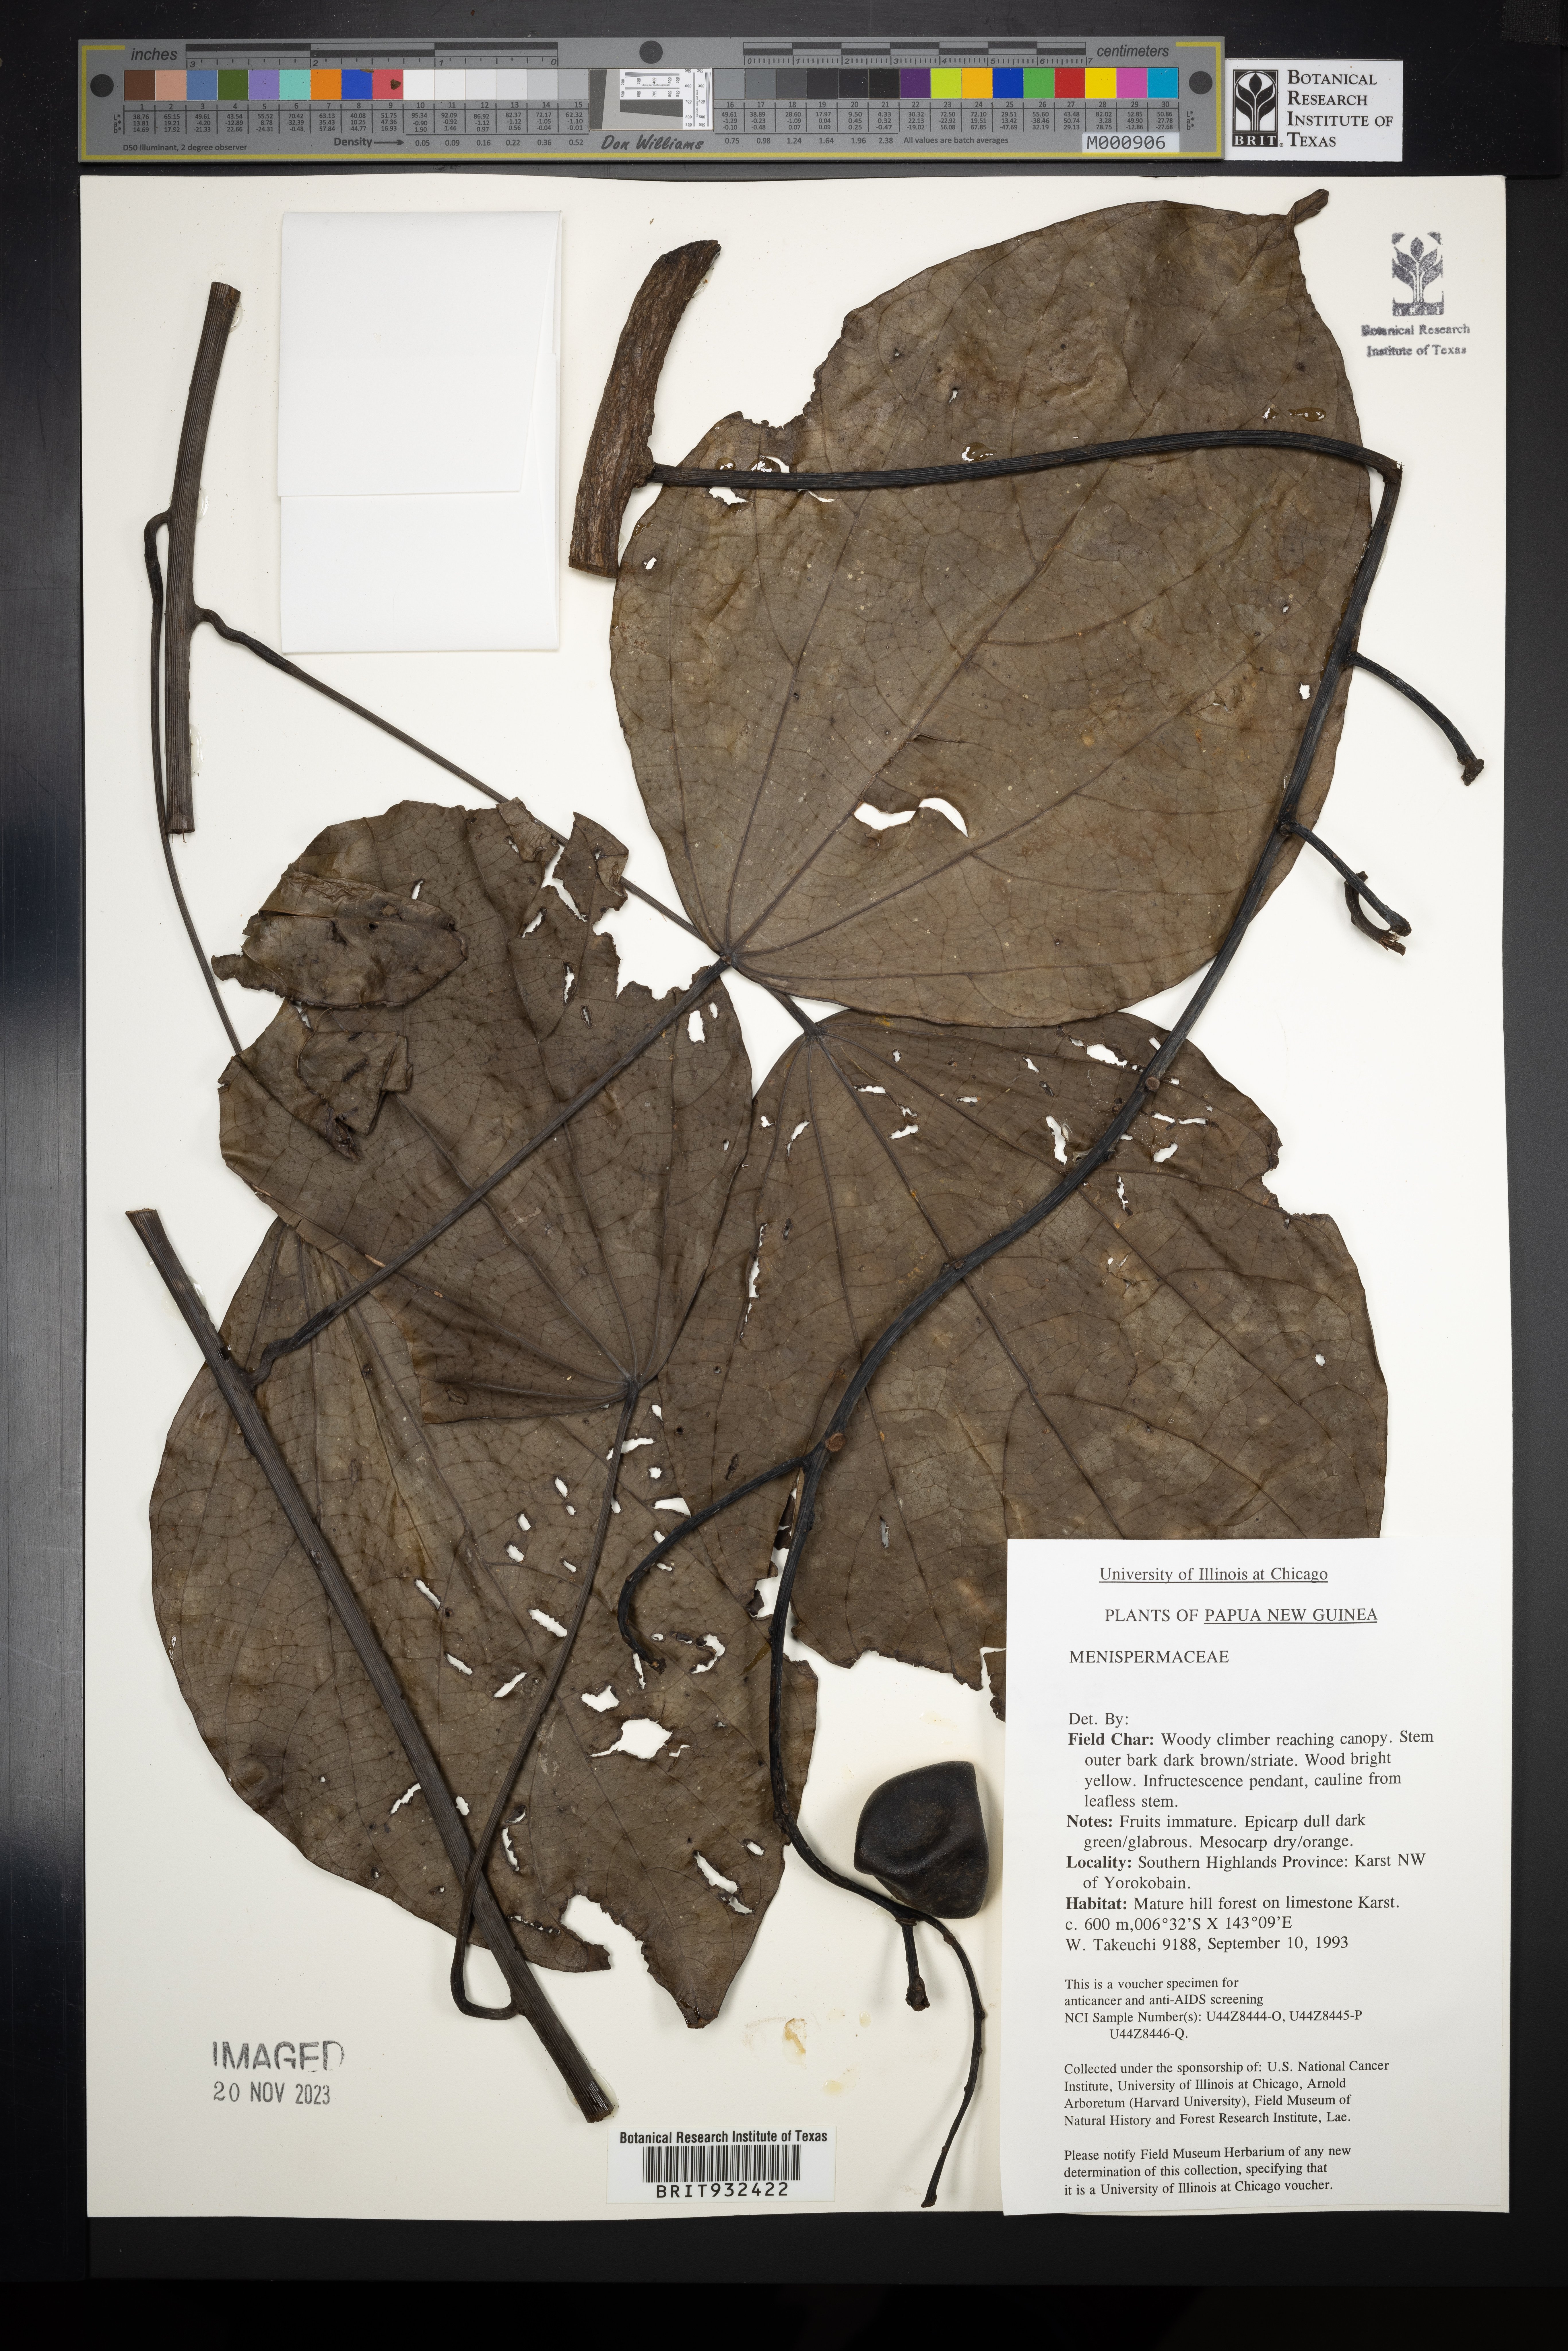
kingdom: Plantae
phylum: Tracheophyta
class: Magnoliopsida
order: Ranunculales
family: Menispermaceae
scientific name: Menispermaceae
